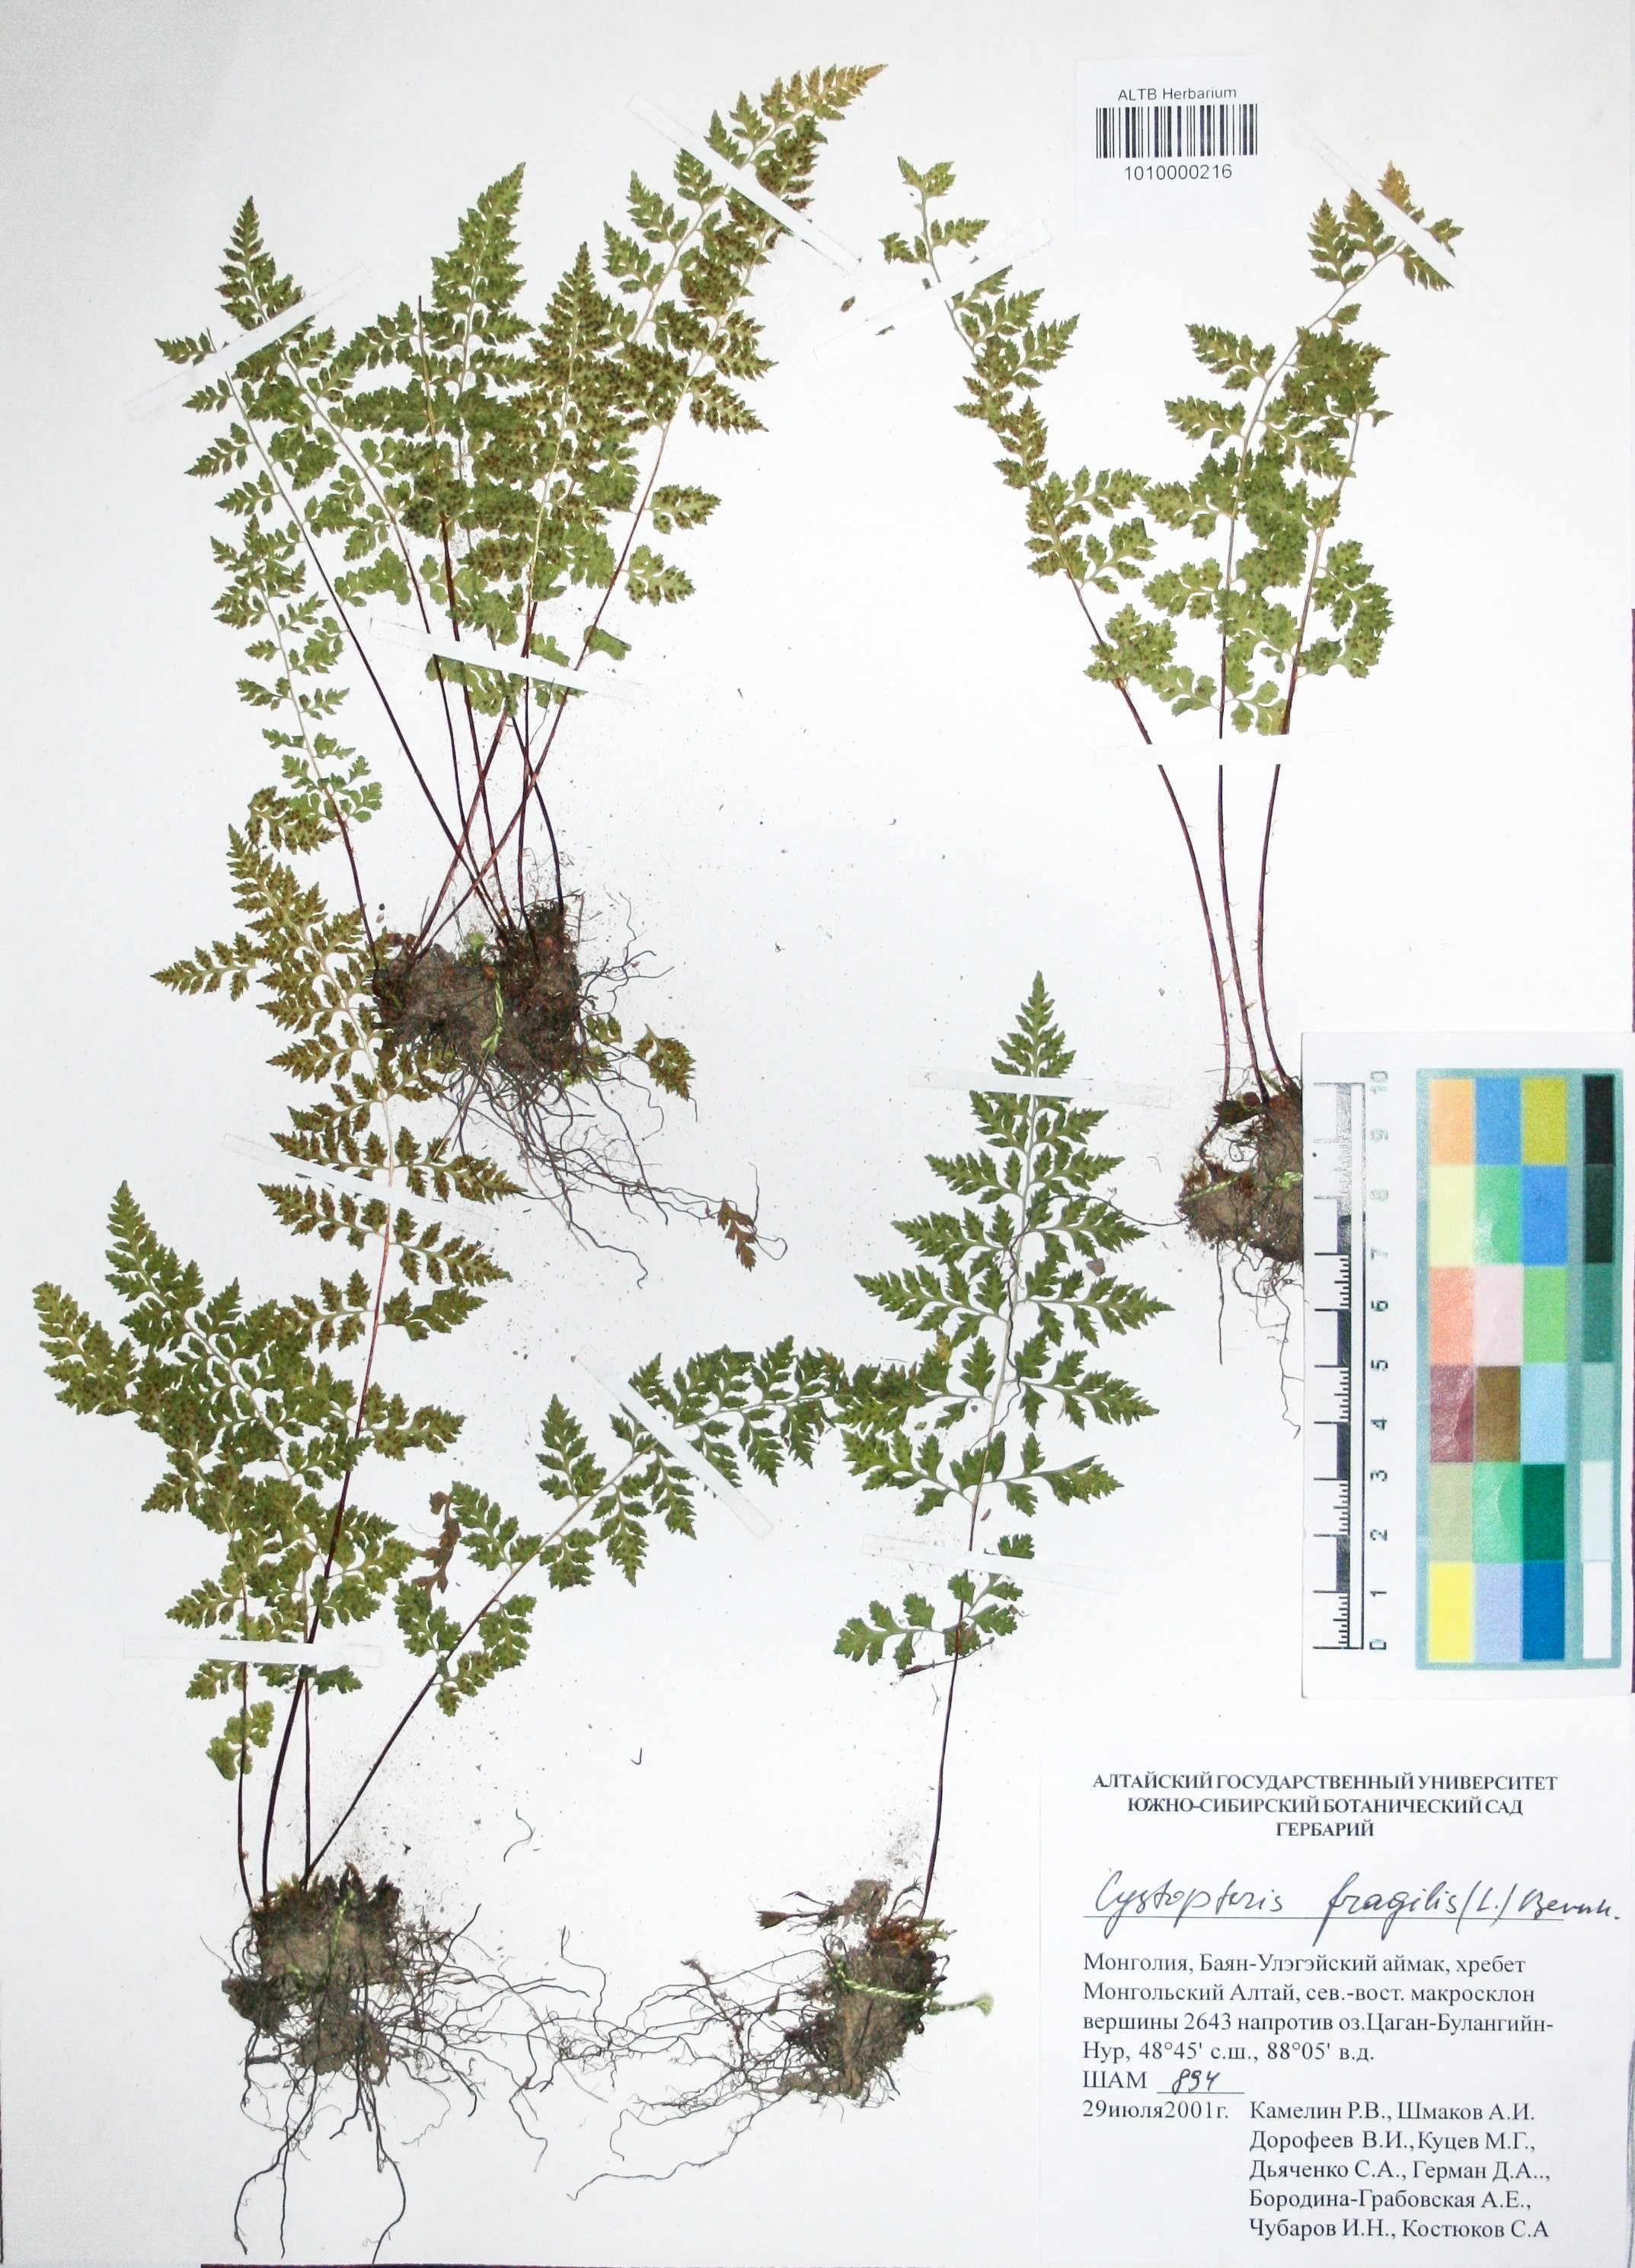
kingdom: Plantae
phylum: Tracheophyta
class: Polypodiopsida
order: Polypodiales
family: Cystopteridaceae
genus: Cystopteris
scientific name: Cystopteris fragilis
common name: Brittle bladder fern
